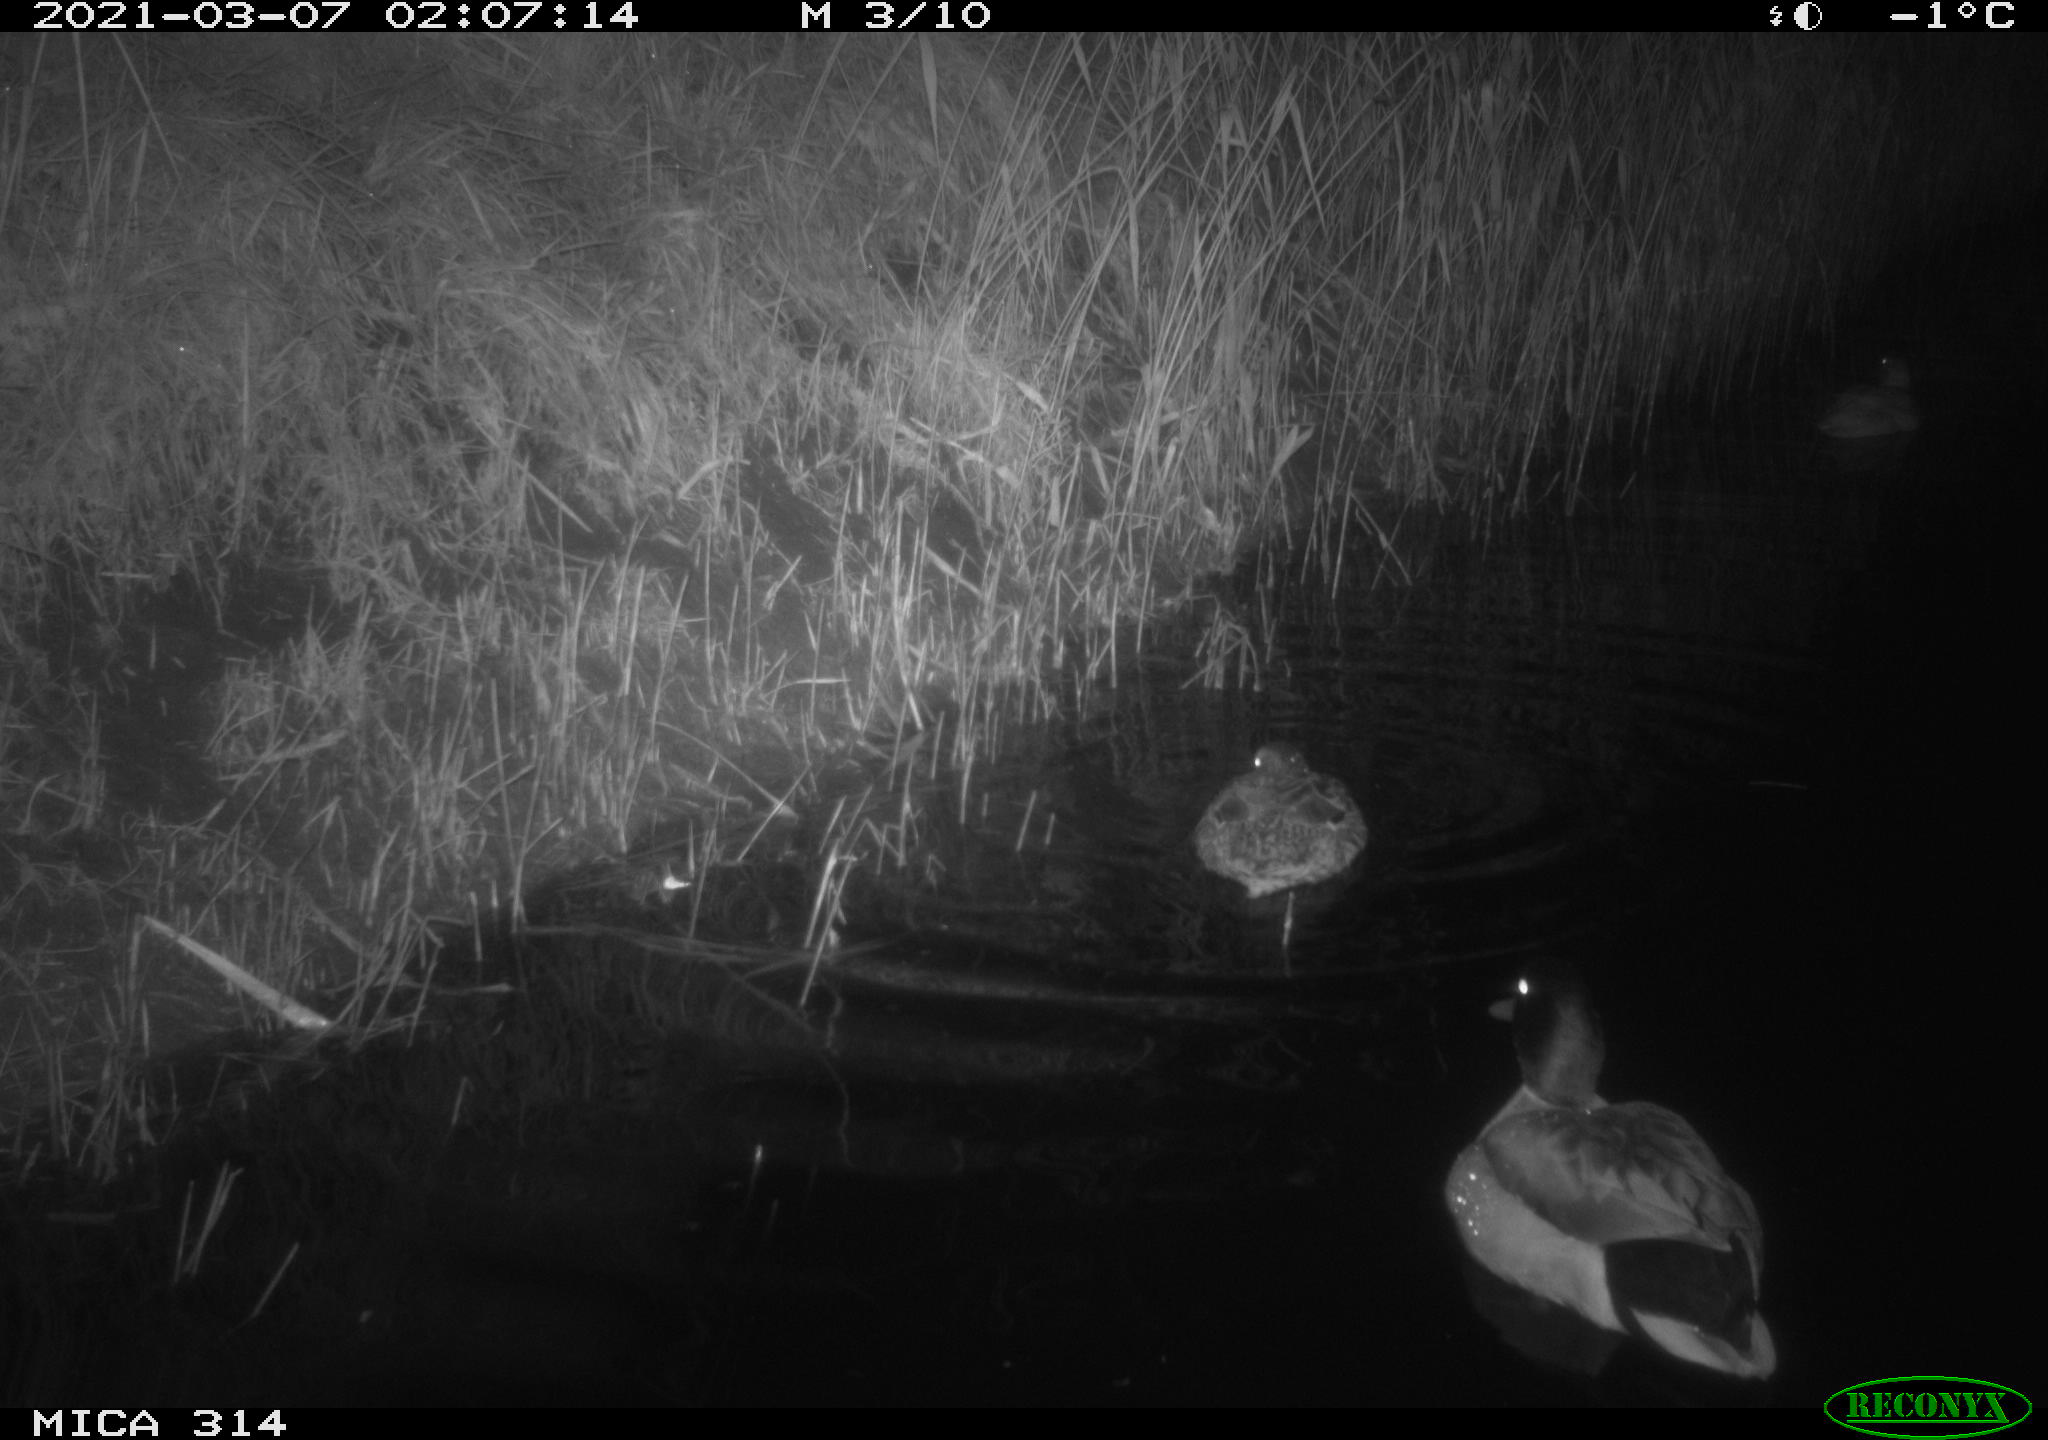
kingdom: Animalia
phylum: Chordata
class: Aves
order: Anseriformes
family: Anatidae
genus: Anas
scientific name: Anas platyrhynchos
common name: Mallard
